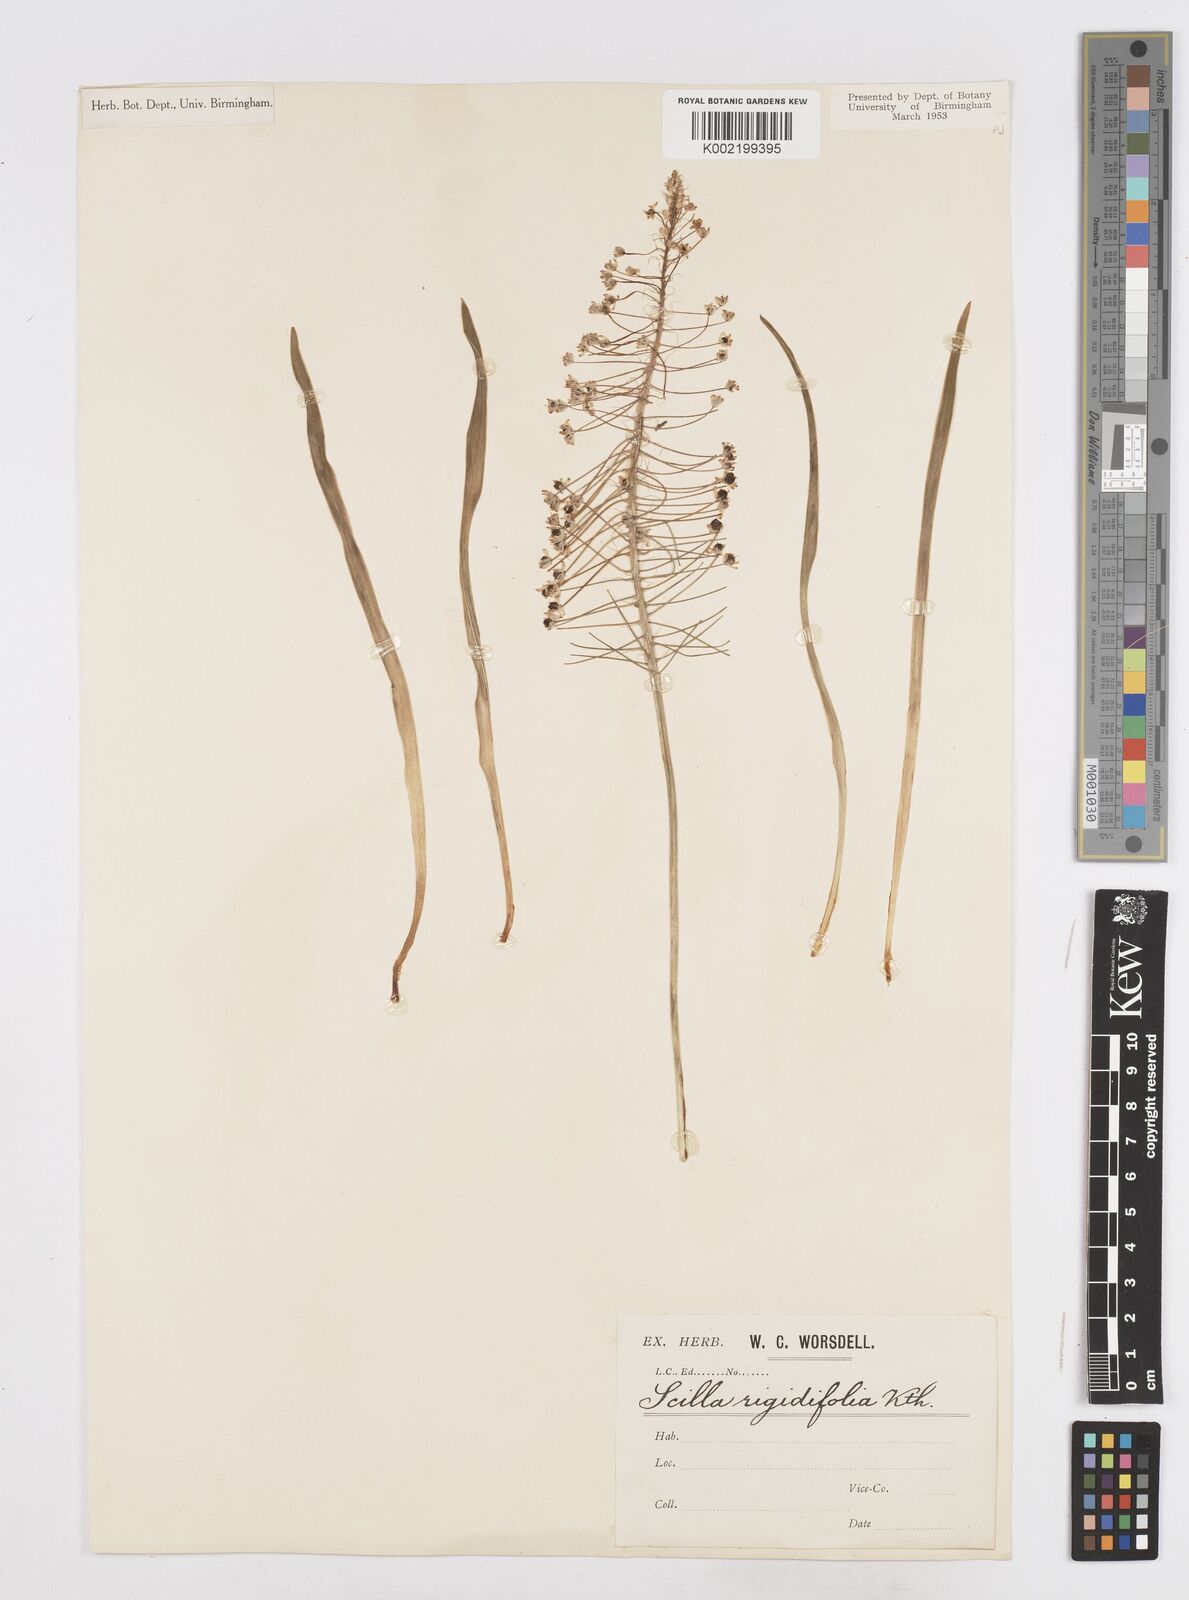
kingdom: Plantae
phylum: Tracheophyta
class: Liliopsida
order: Asparagales
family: Asparagaceae
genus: Schizocarphus
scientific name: Schizocarphus nervosus
